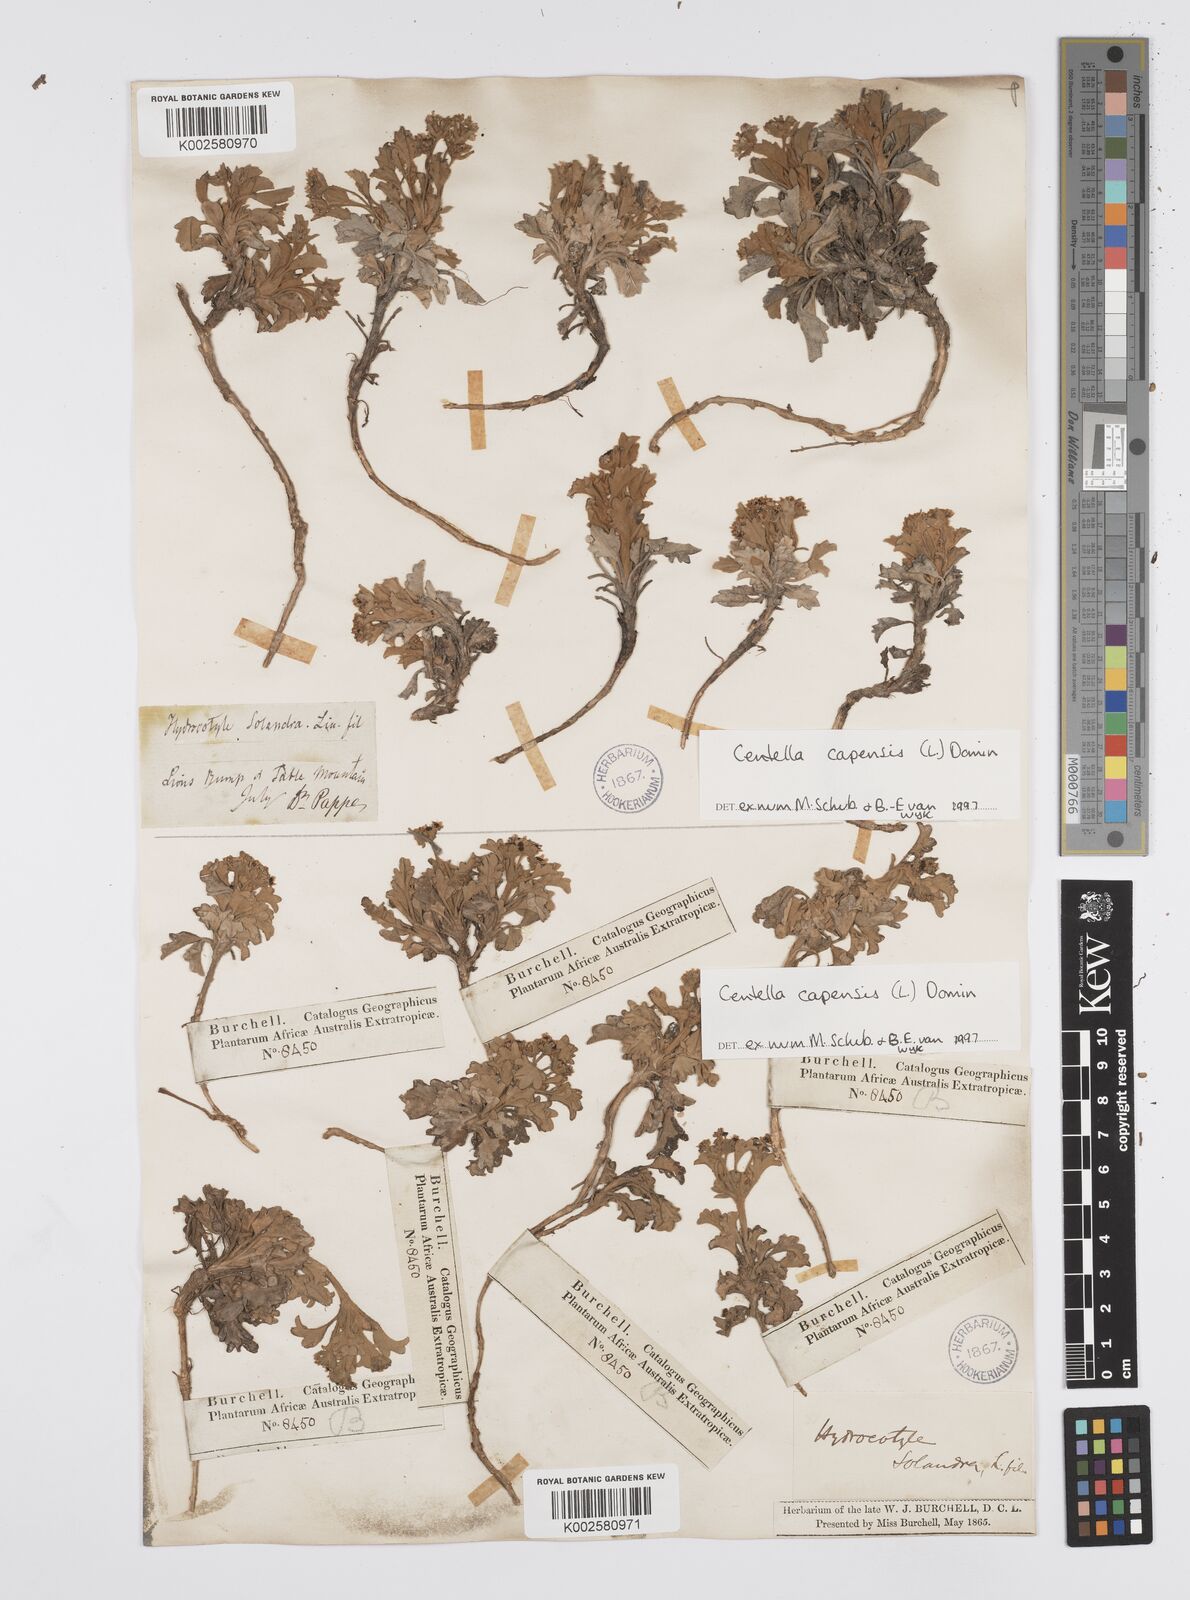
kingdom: Plantae
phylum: Tracheophyta
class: Magnoliopsida
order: Apiales
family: Apiaceae
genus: Centella
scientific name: Centella capensis
